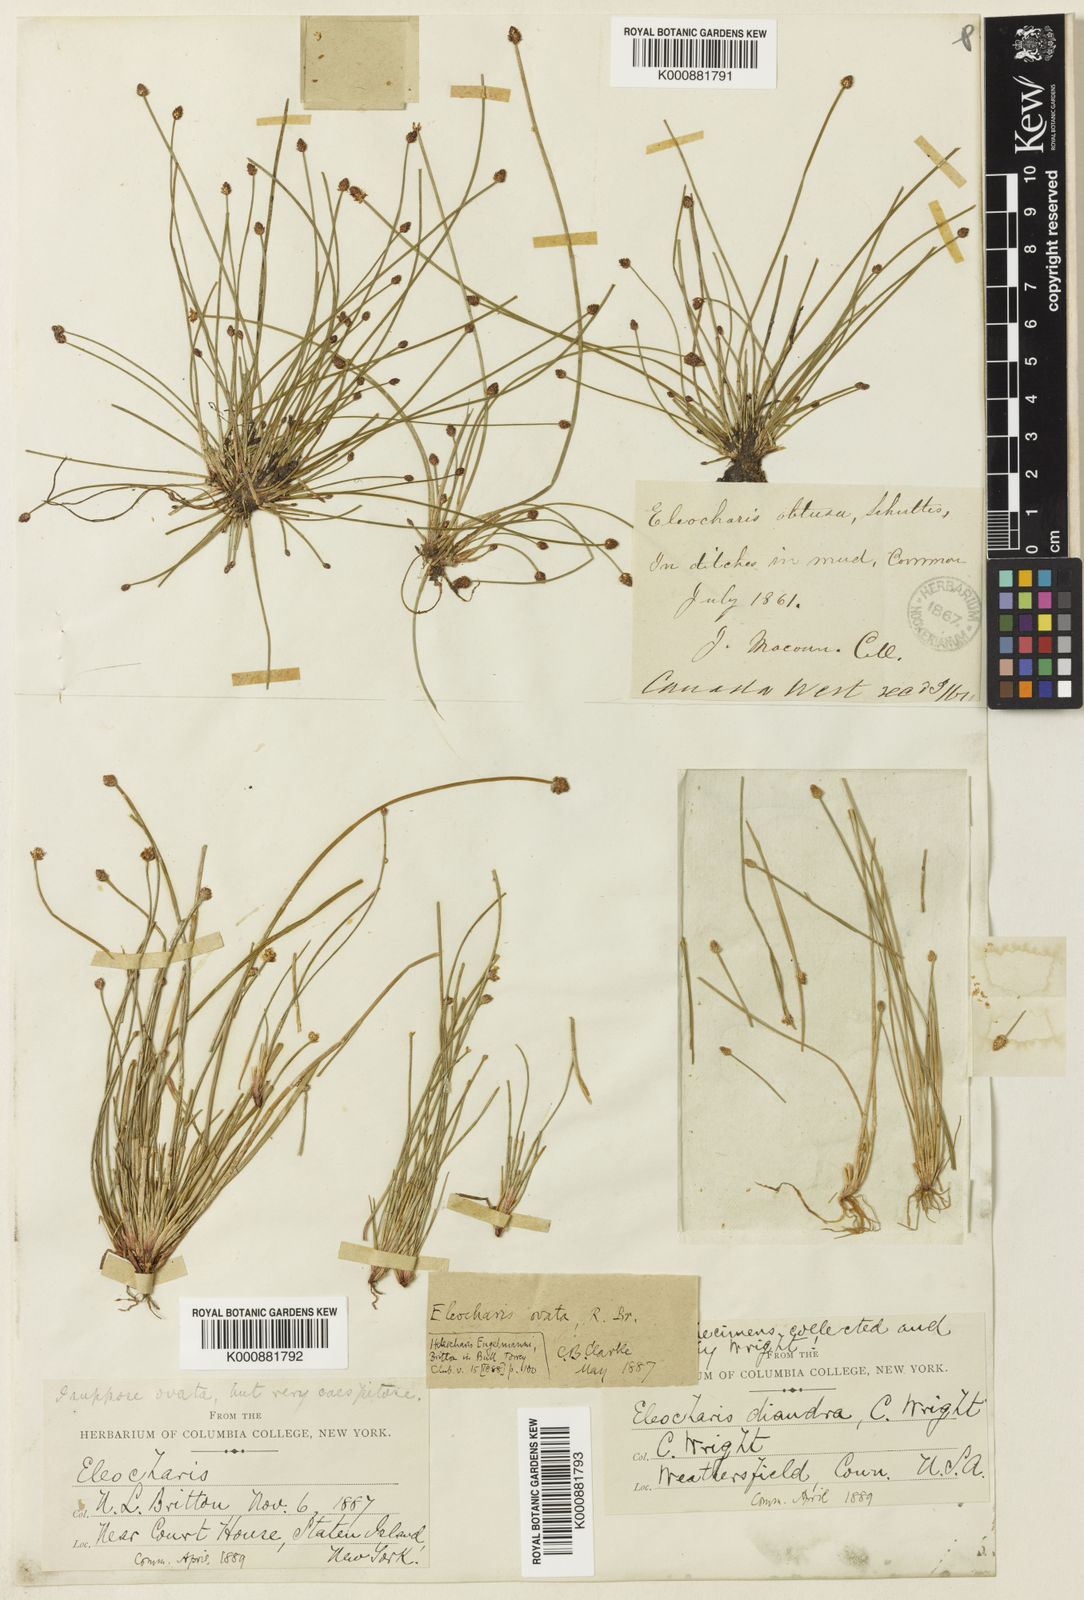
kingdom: Plantae
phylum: Tracheophyta
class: Liliopsida
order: Poales
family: Cyperaceae
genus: Eleocharis
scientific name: Eleocharis ovata
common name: Oval spike-rush
